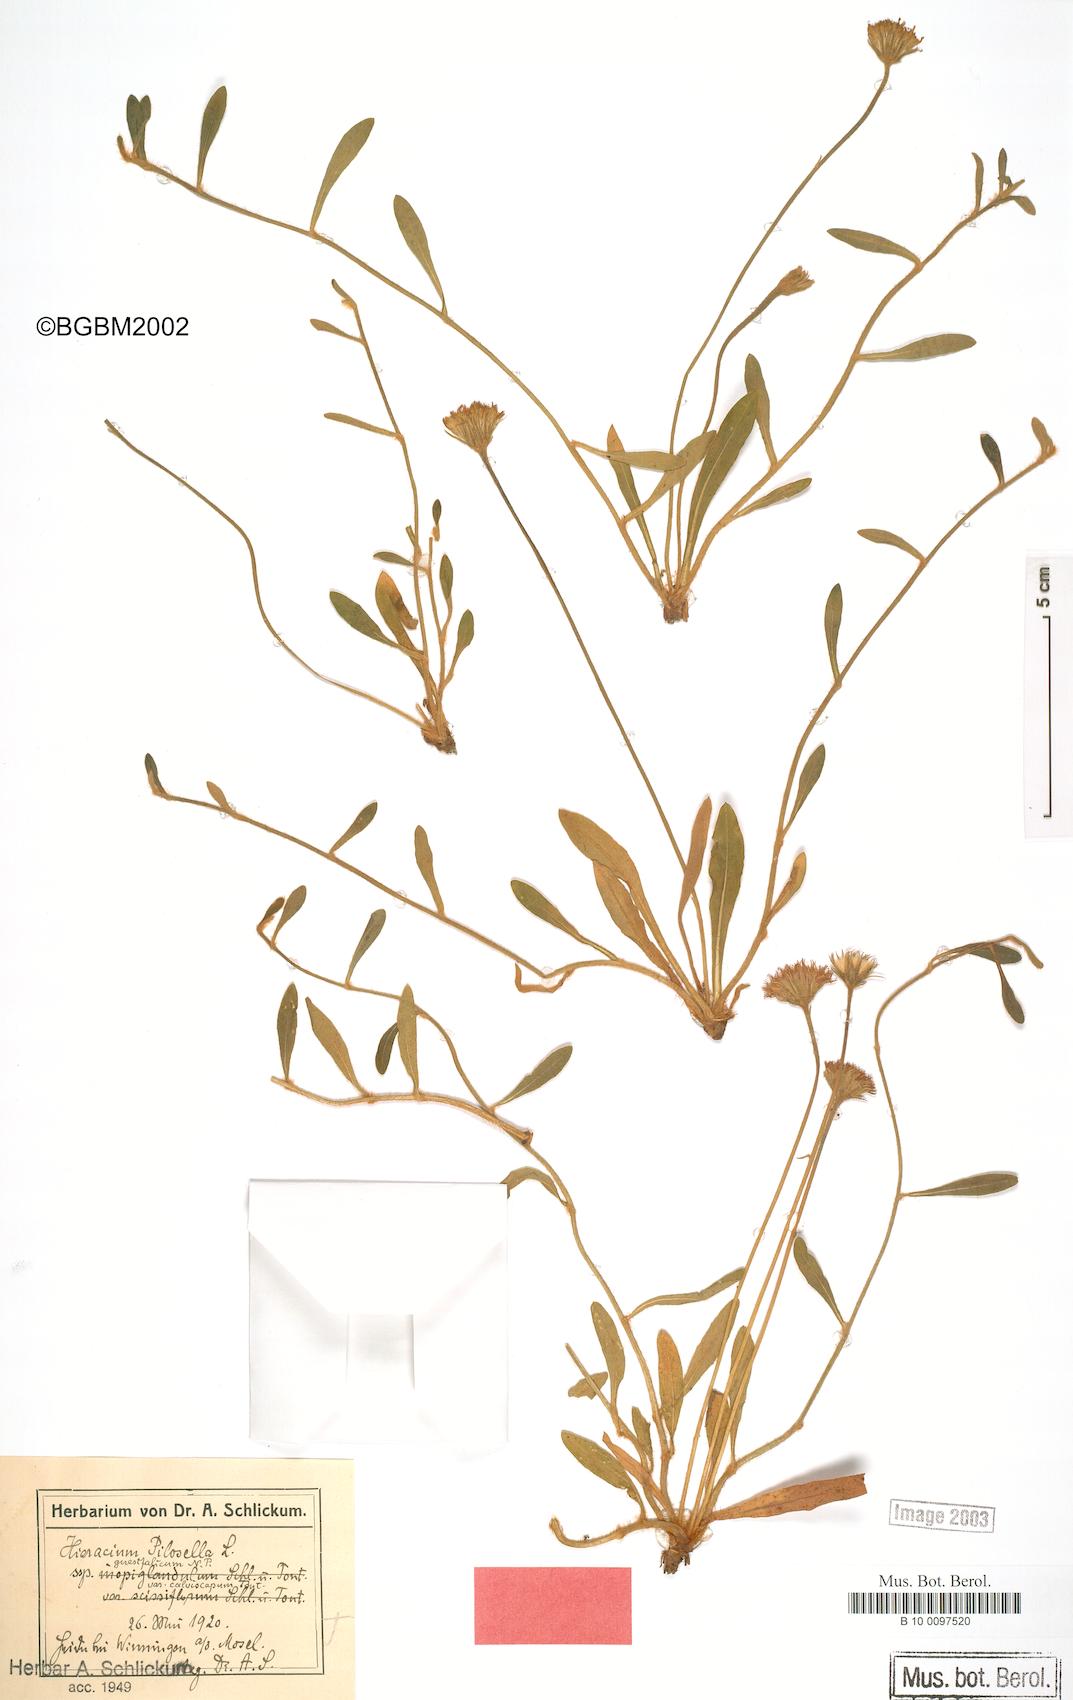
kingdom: Plantae
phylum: Tracheophyta
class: Magnoliopsida
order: Asterales
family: Asteraceae
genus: Pilosella
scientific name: Pilosella officinarum
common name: Mouse-ear hawkweed
